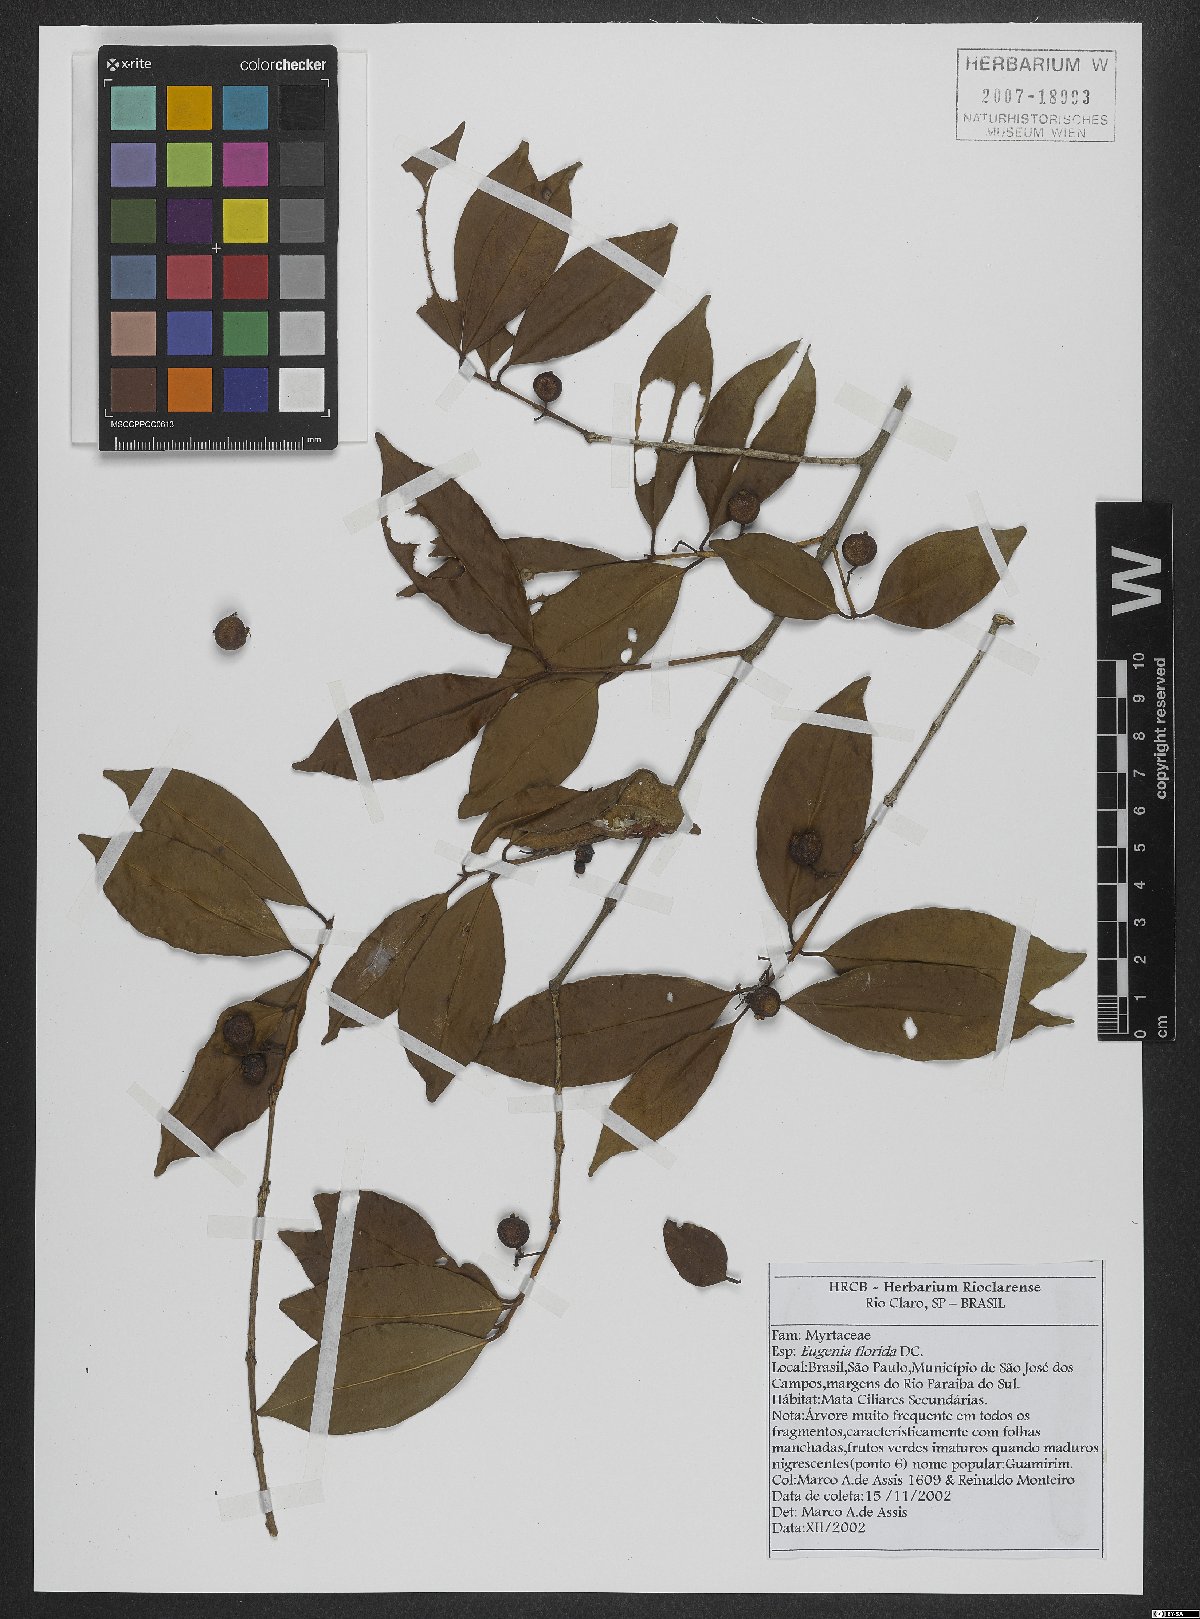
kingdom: Plantae
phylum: Tracheophyta
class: Magnoliopsida
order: Myrtales
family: Myrtaceae
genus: Eugenia
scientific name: Eugenia florida
